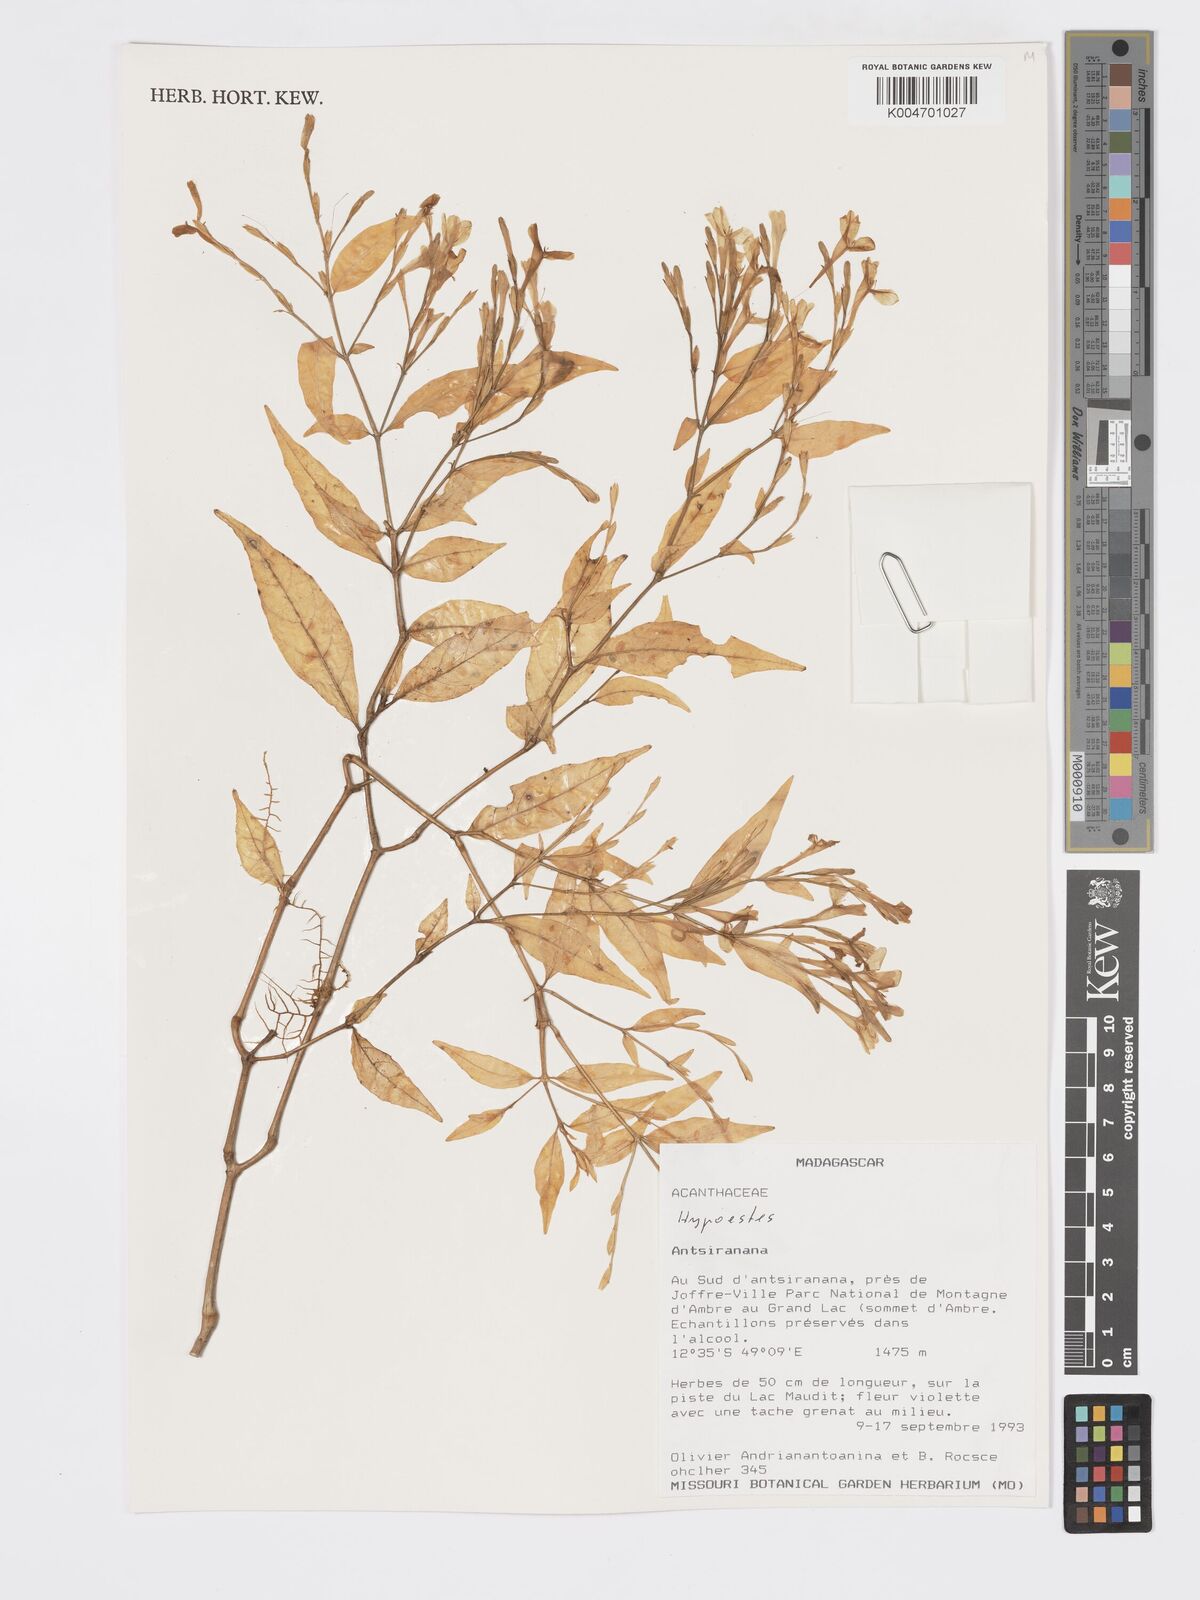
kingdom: Plantae
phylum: Tracheophyta
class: Magnoliopsida
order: Lamiales
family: Acanthaceae
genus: Hypoestes
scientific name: Hypoestes
